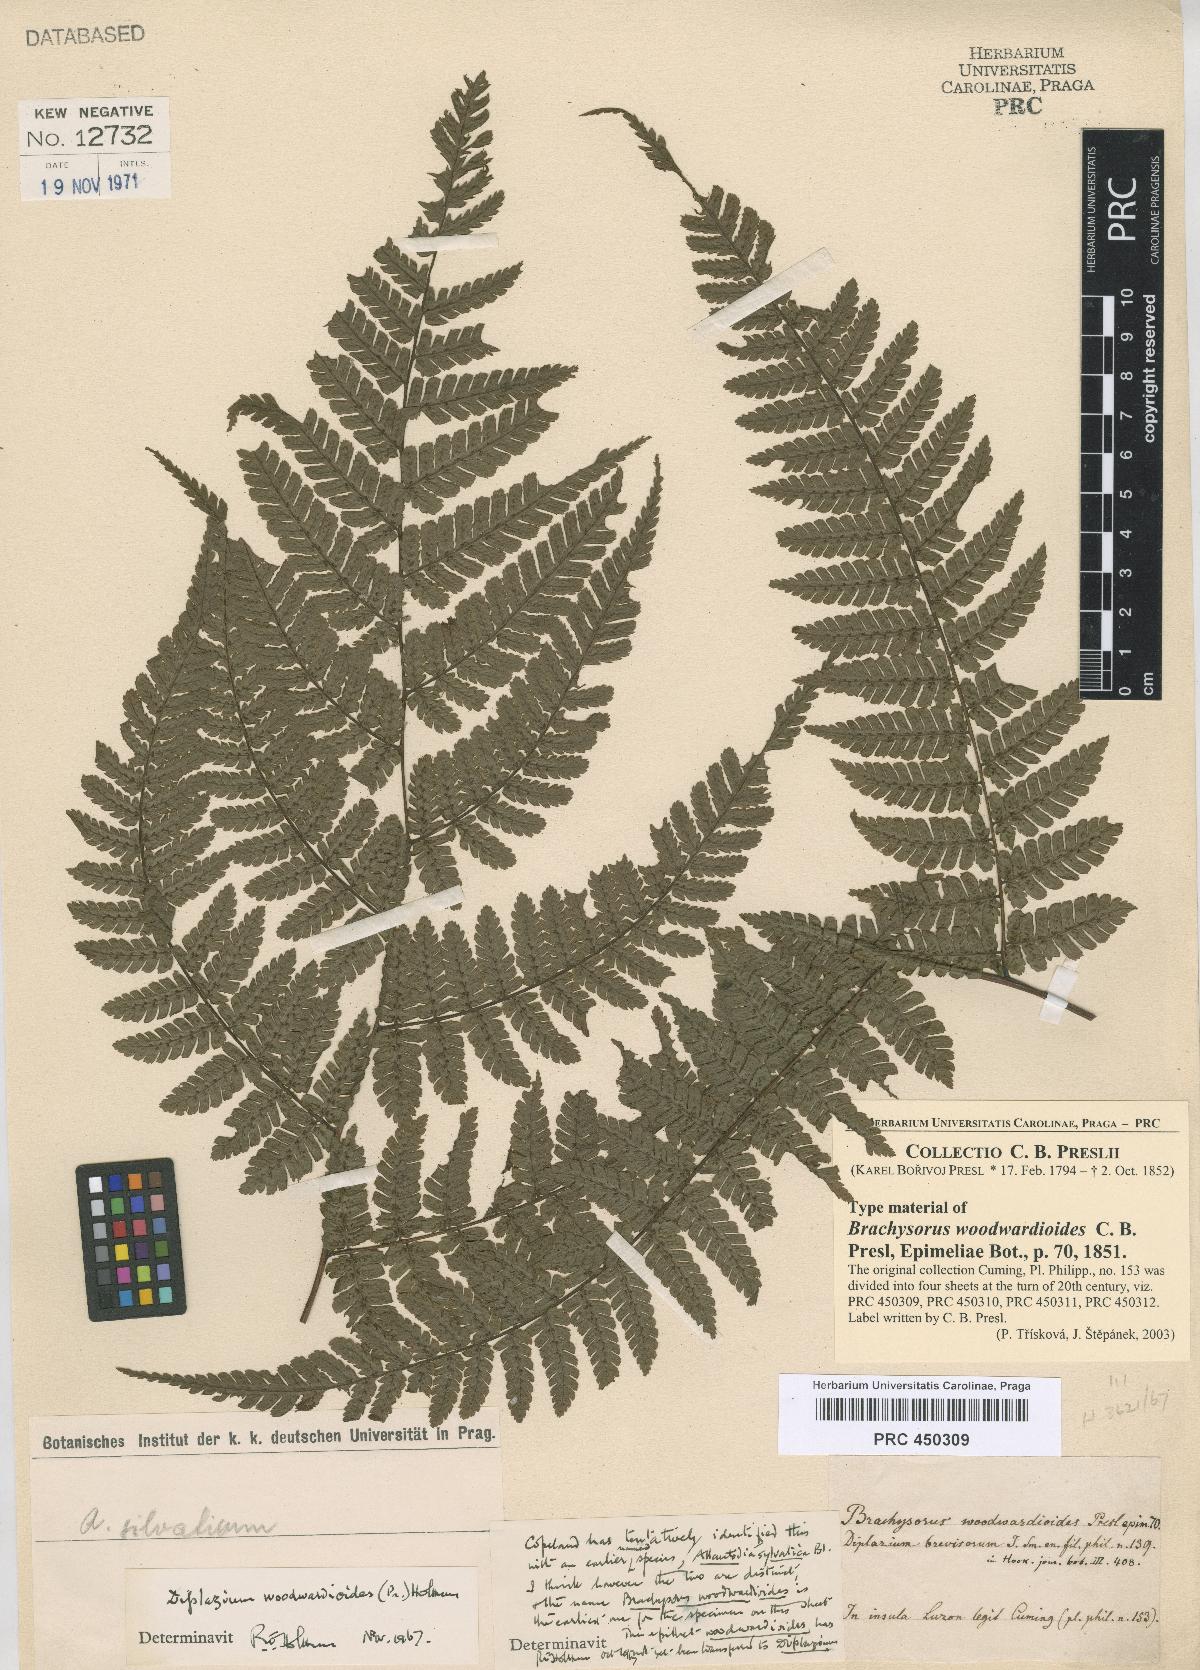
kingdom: Plantae
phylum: Tracheophyta
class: Polypodiopsida
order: Polypodiales
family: Athyriaceae
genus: Diplazium
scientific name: Diplazium woodwardioides
